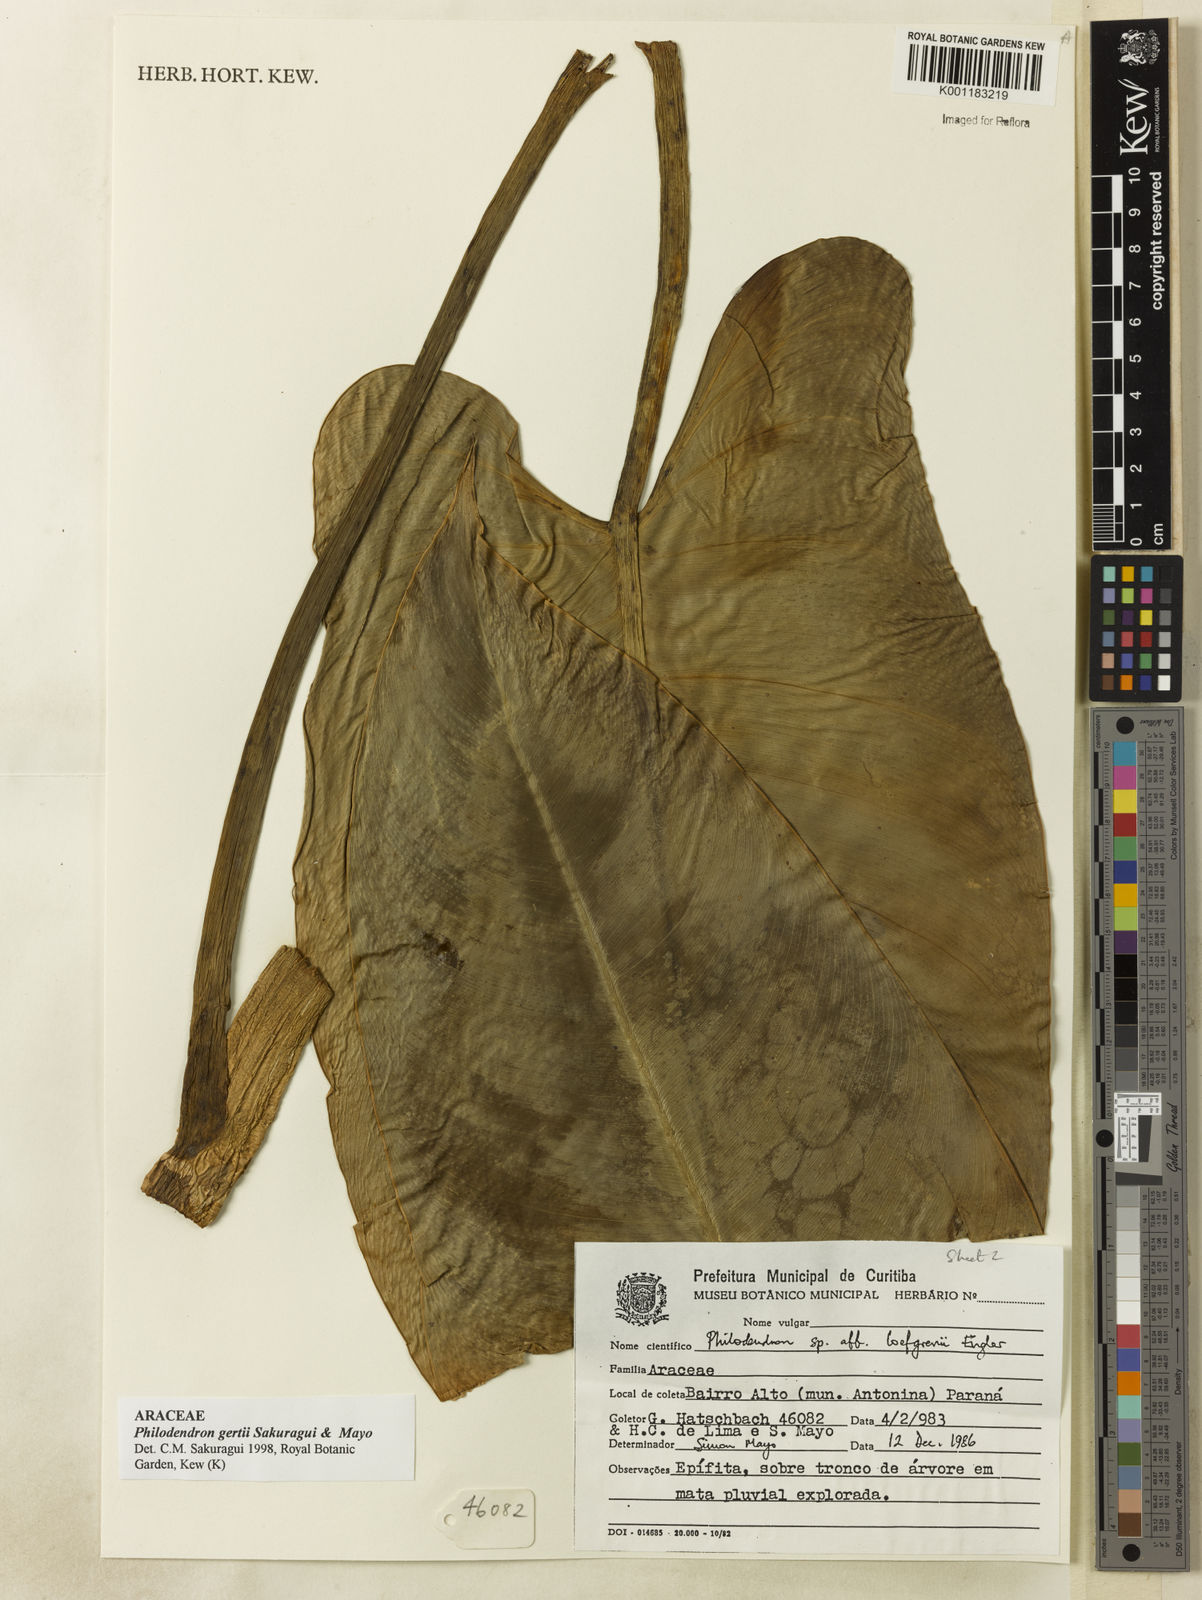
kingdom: Plantae
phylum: Tracheophyta
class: Liliopsida
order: Alismatales
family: Araceae
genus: Philodendron
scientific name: Philodendron
